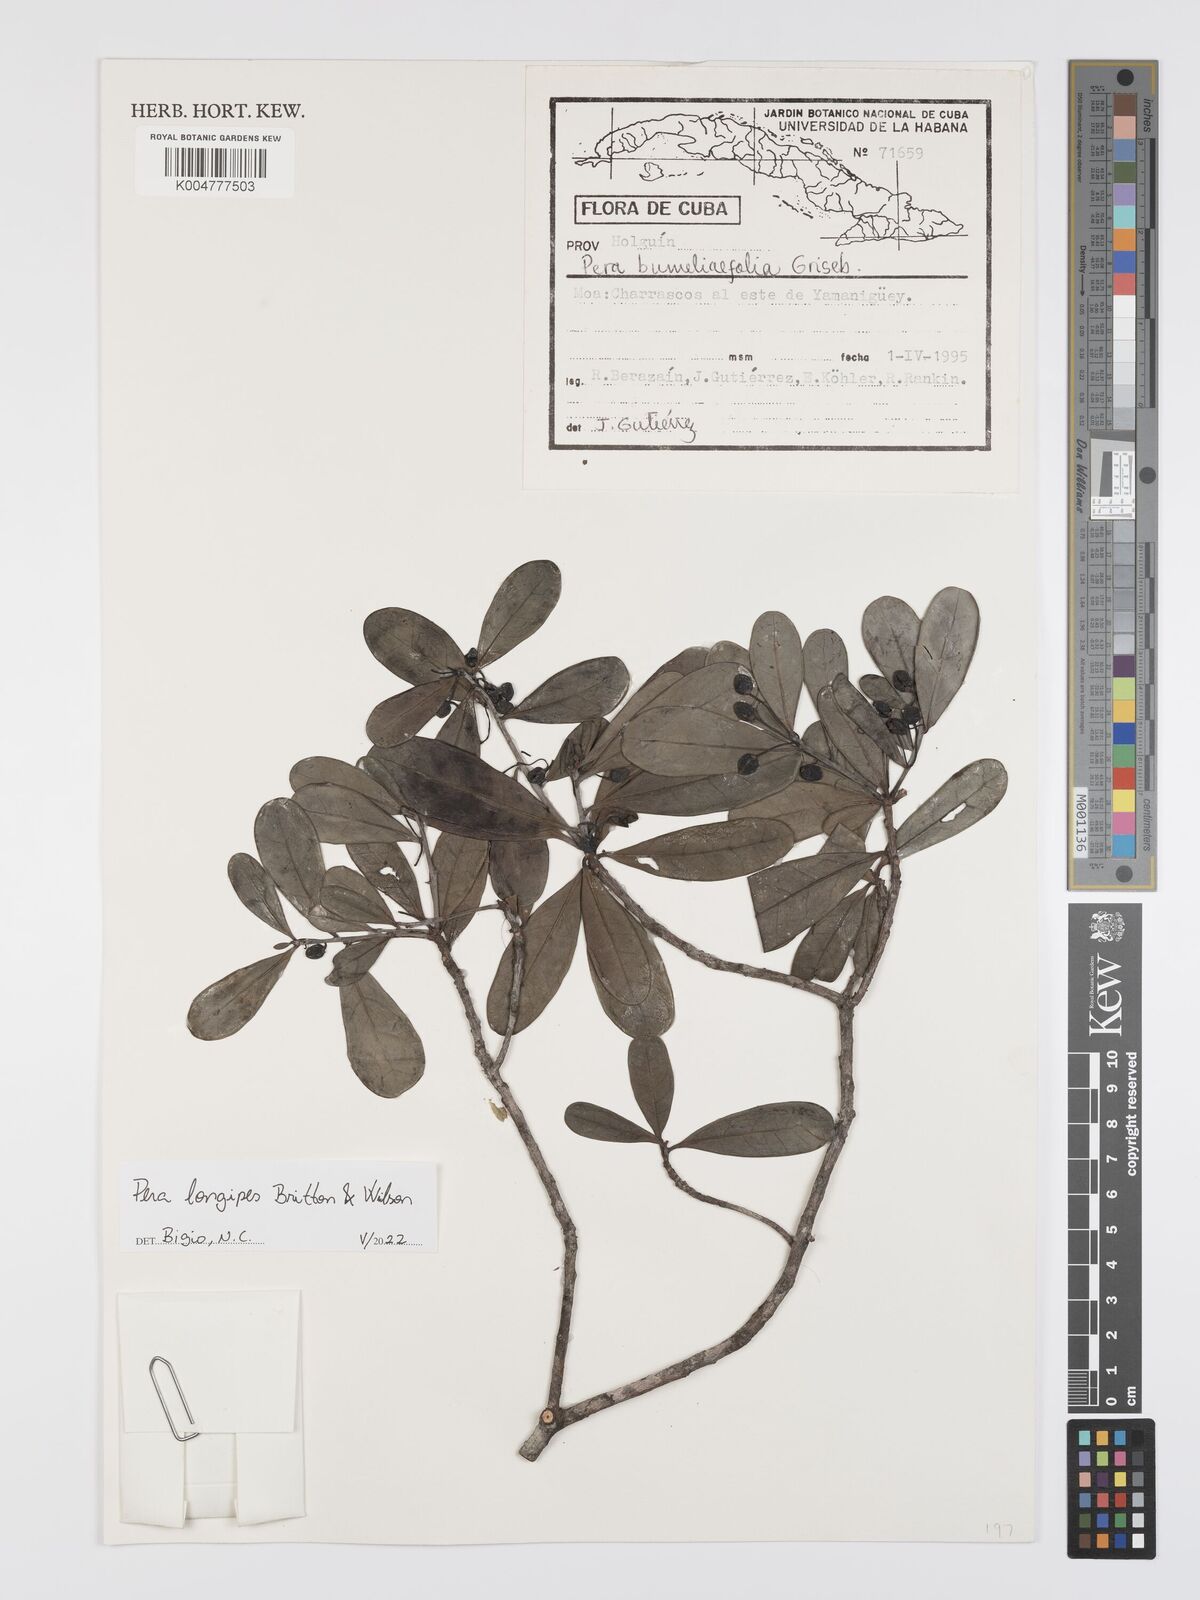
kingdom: Plantae
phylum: Tracheophyta
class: Magnoliopsida
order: Malpighiales
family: Peraceae
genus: Pera
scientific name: Pera longipes
